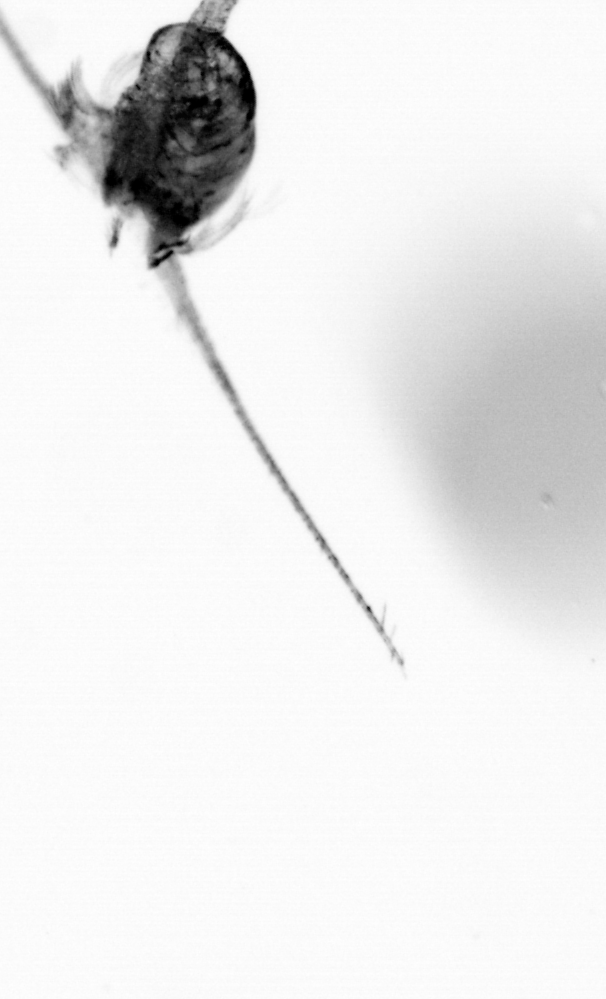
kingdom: Animalia
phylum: Arthropoda
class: Copepoda
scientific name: Copepoda
